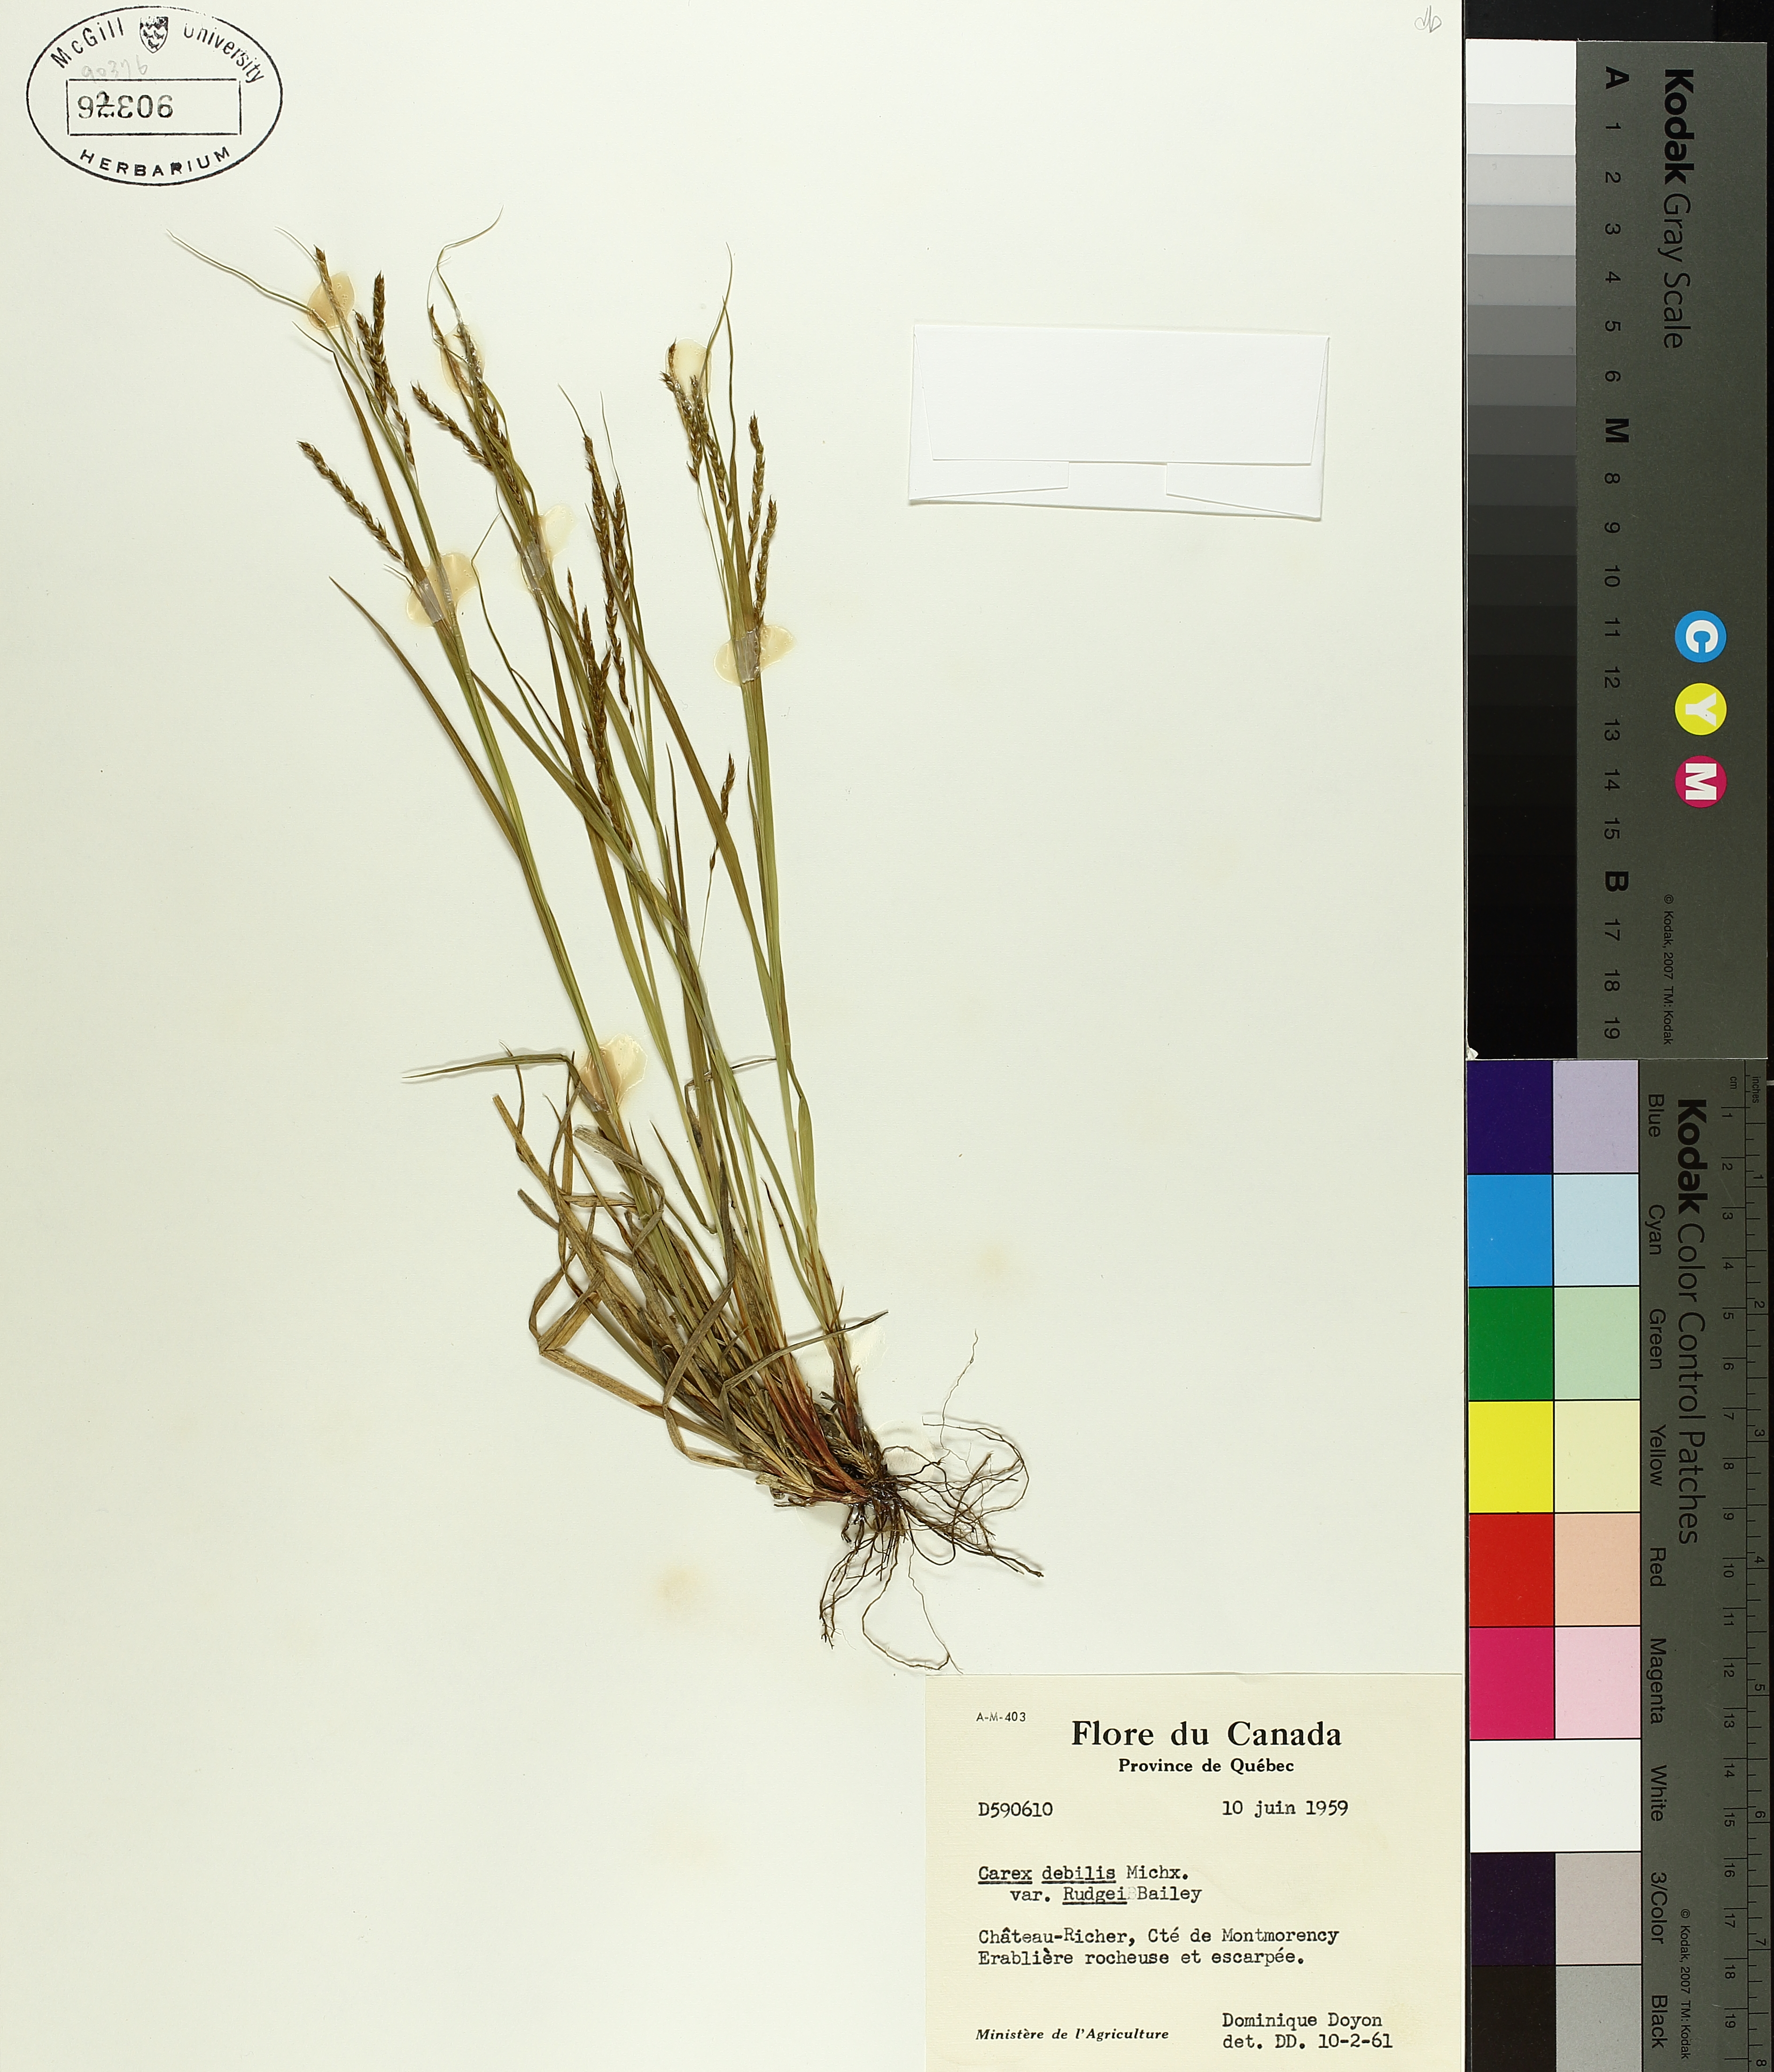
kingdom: Plantae
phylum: Tracheophyta
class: Liliopsida
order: Poales
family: Cyperaceae
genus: Carex
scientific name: Carex debilis
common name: White-edge sedge
